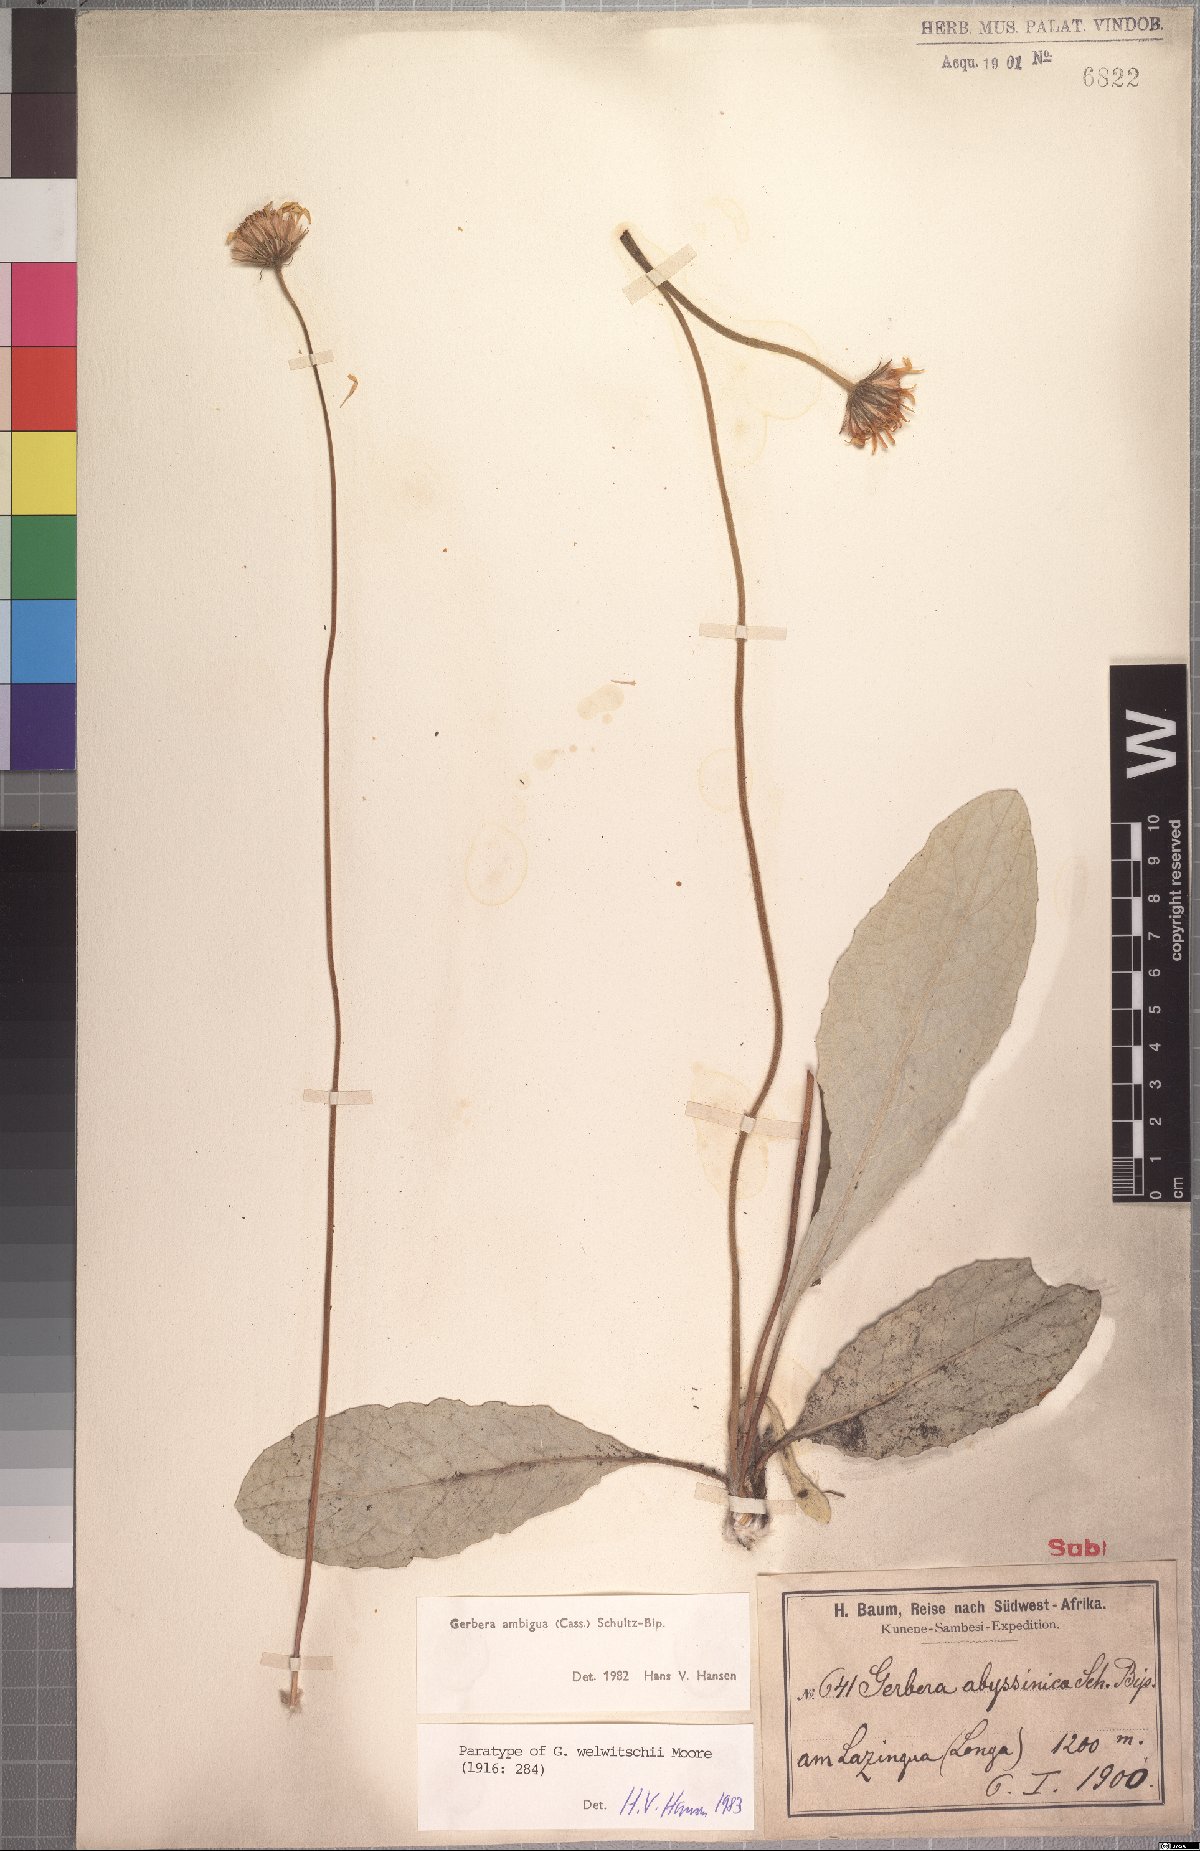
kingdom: Plantae
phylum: Tracheophyta
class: Magnoliopsida
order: Asterales
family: Asteraceae
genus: Gerbera
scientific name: Gerbera ambigua
